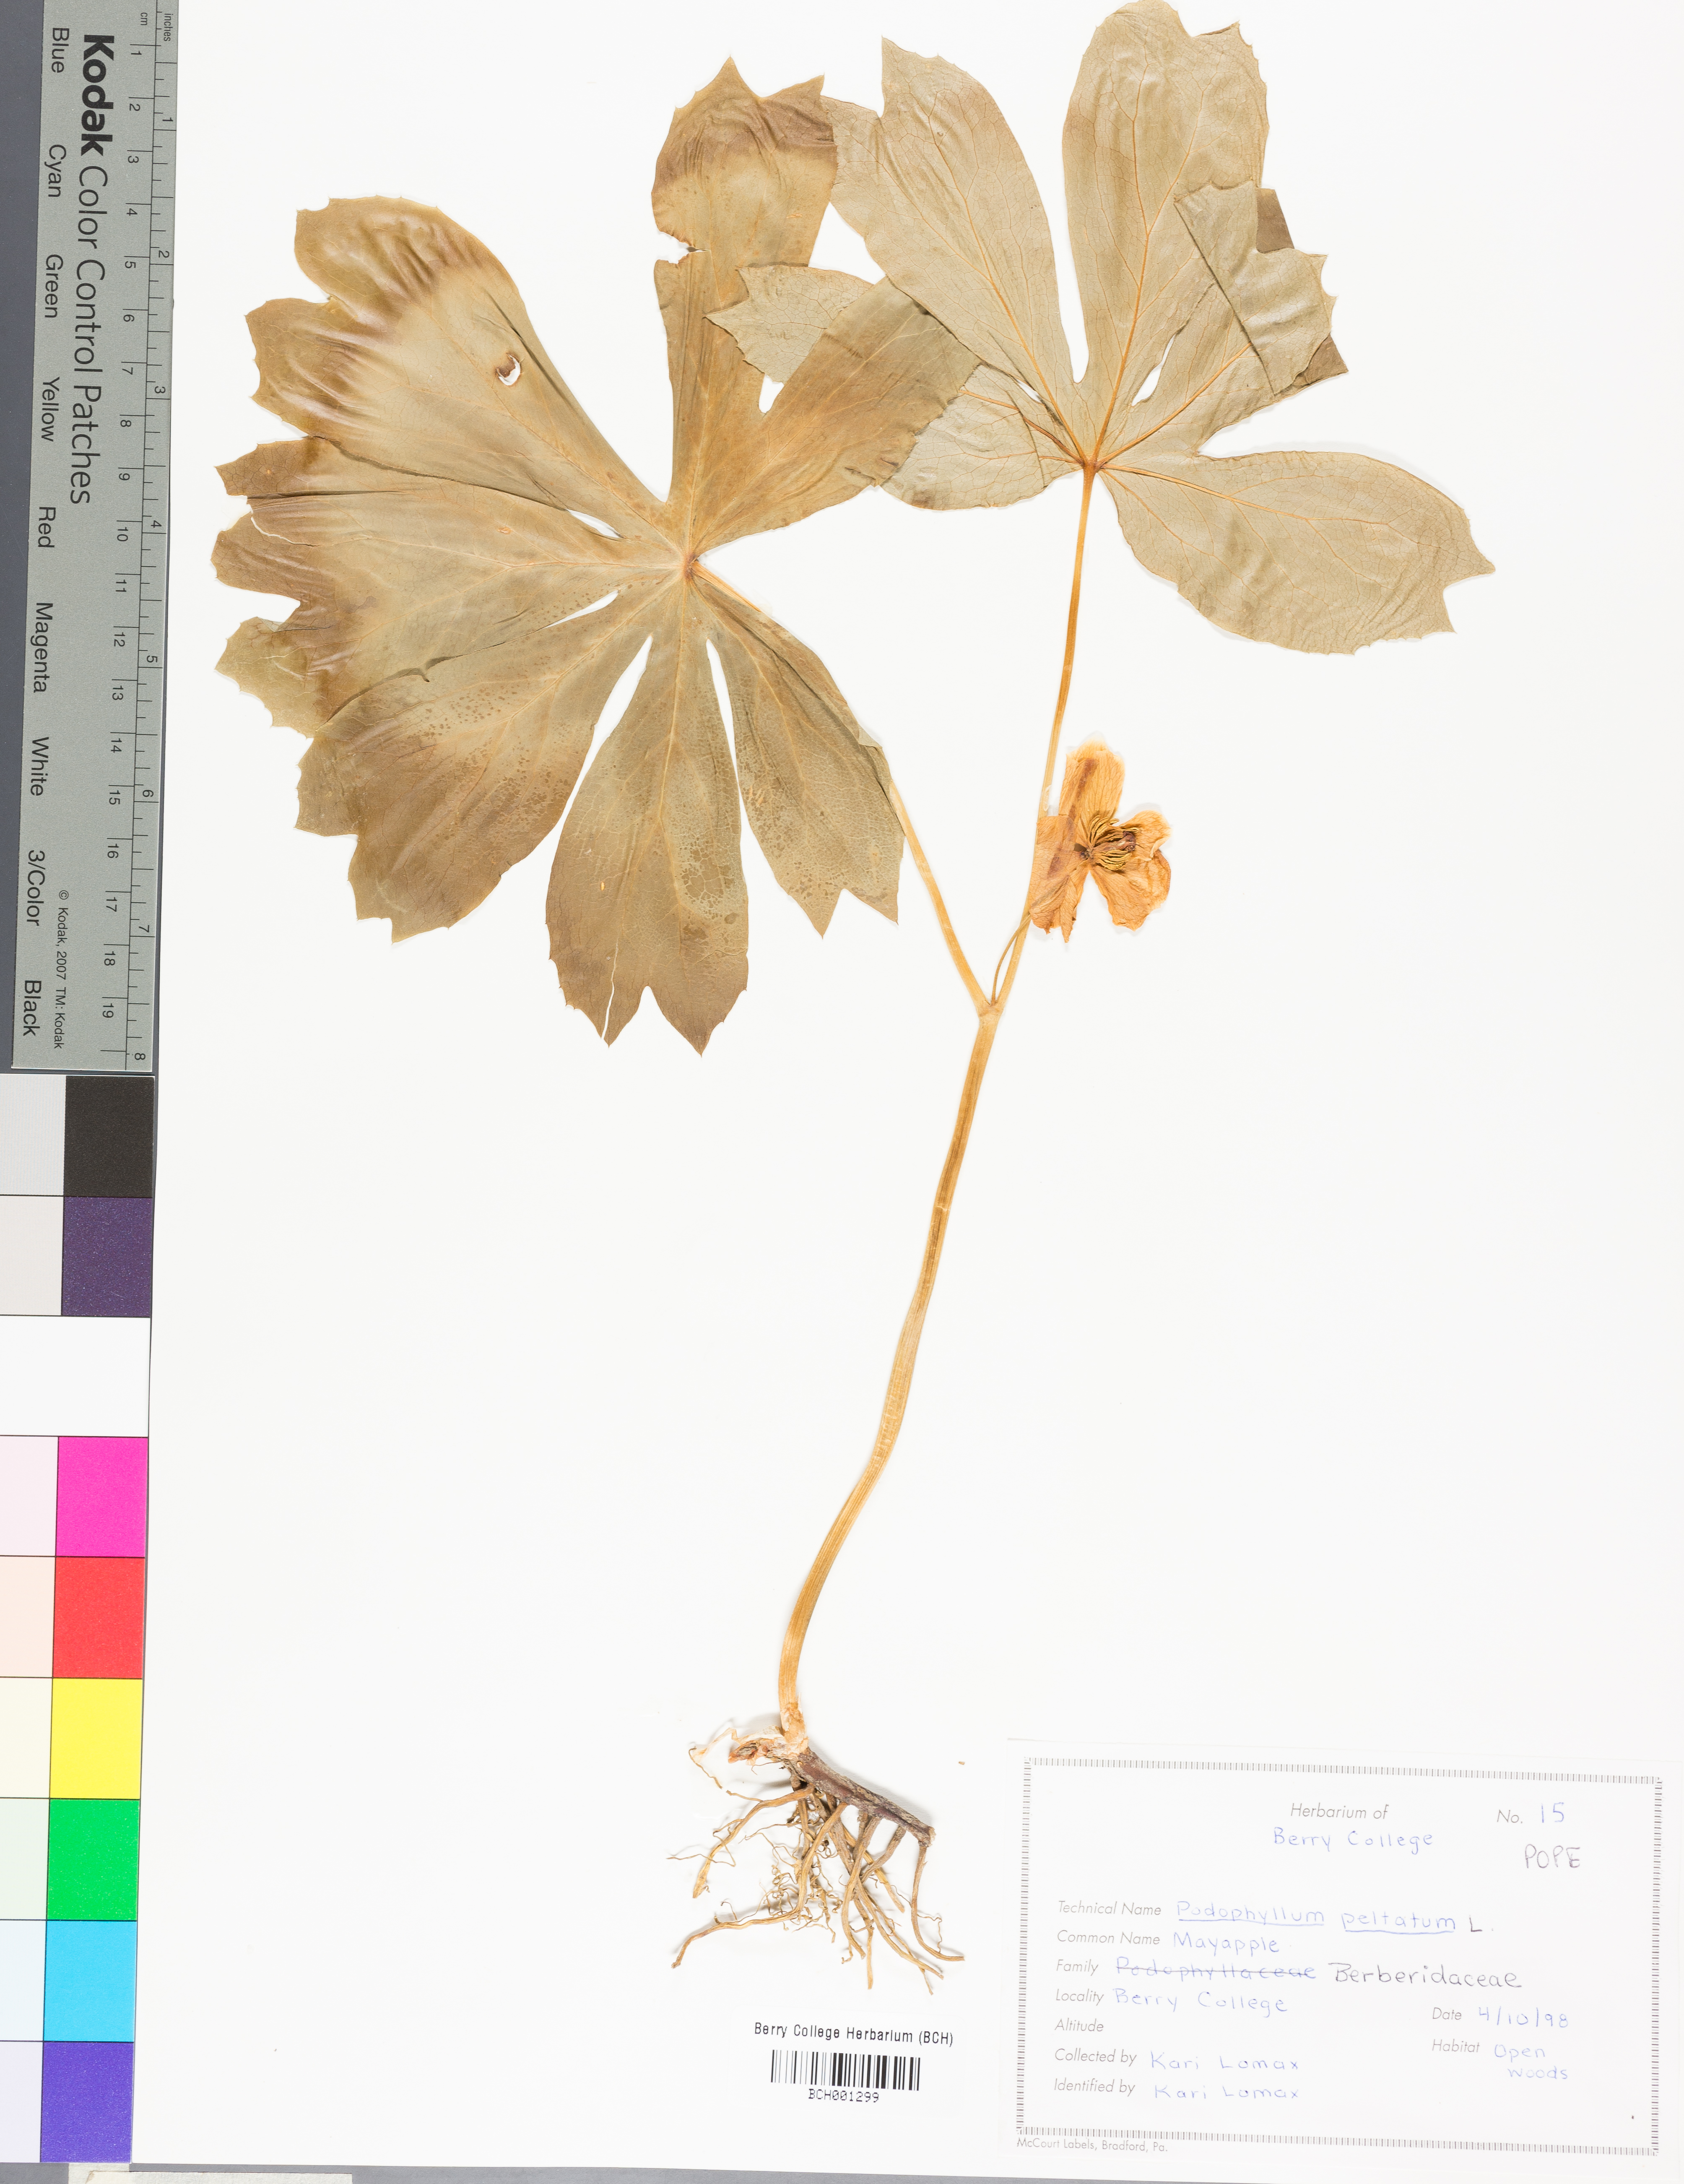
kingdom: Plantae
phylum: Tracheophyta
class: Magnoliopsida
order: Ranunculales
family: Berberidaceae
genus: Podophyllum
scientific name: Podophyllum peltatum
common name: Wild mandrake
